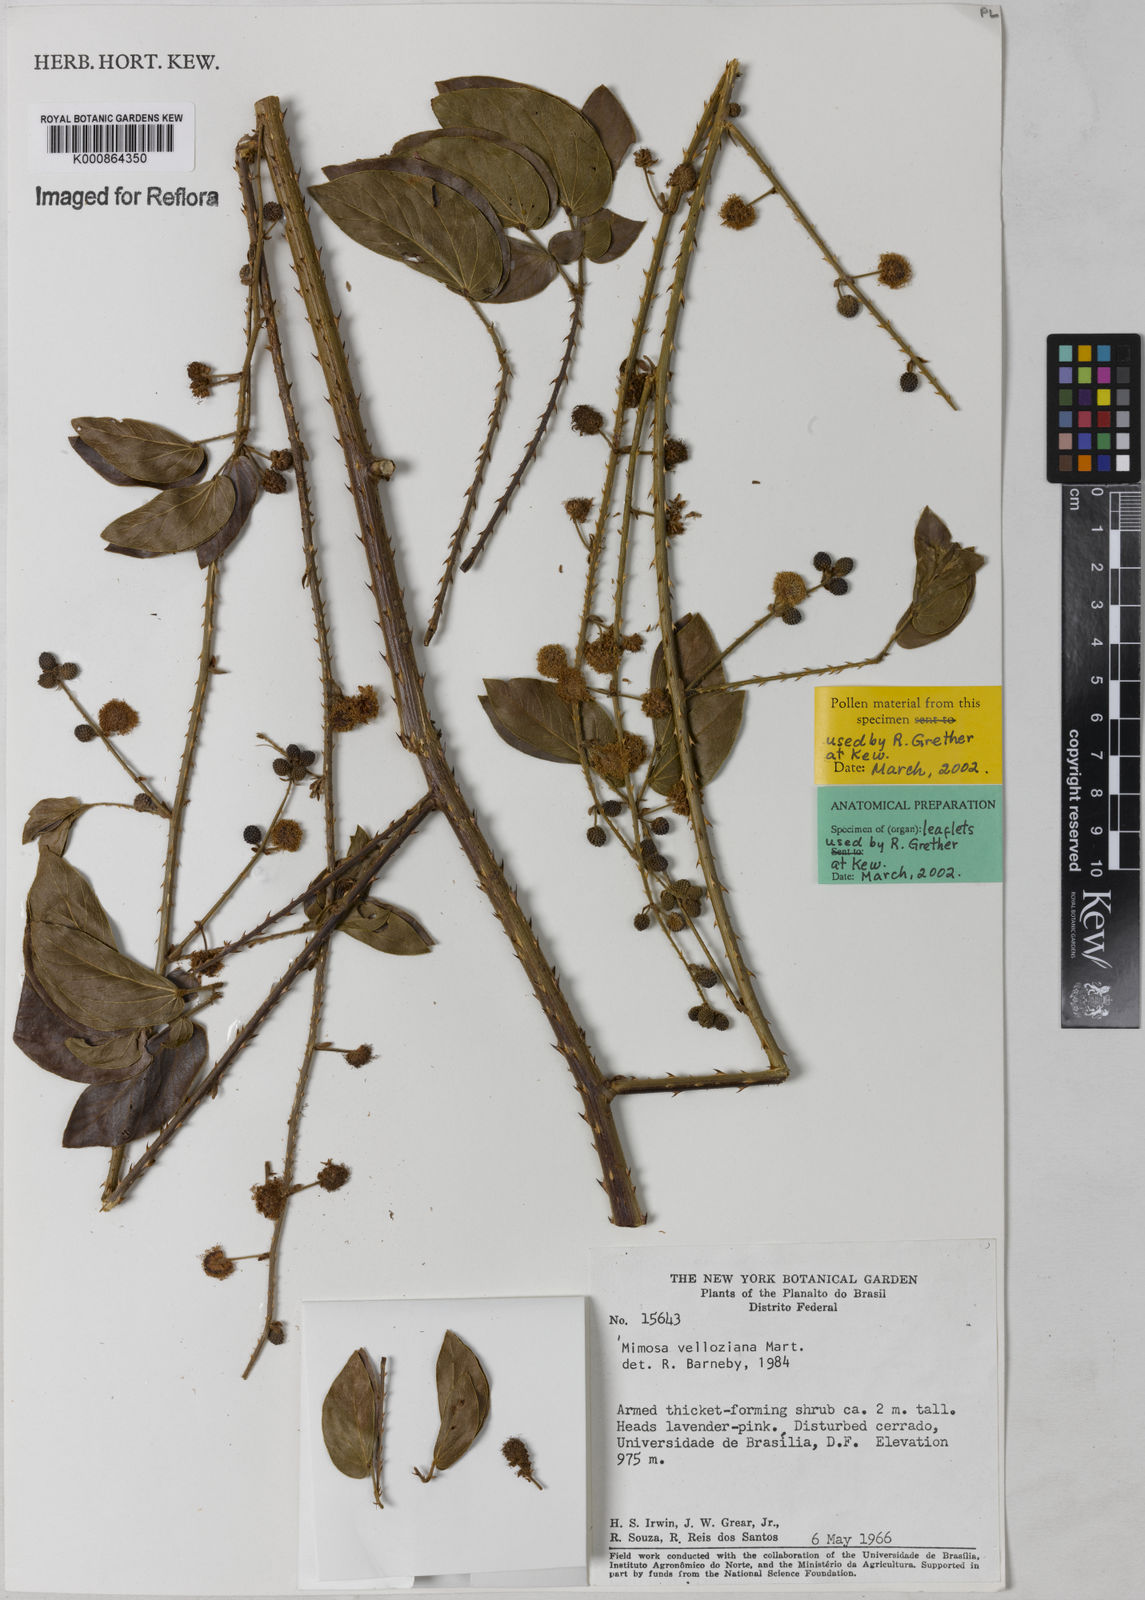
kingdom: Plantae
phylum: Tracheophyta
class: Magnoliopsida
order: Fabales
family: Fabaceae
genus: Mimosa
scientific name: Mimosa velloziana
